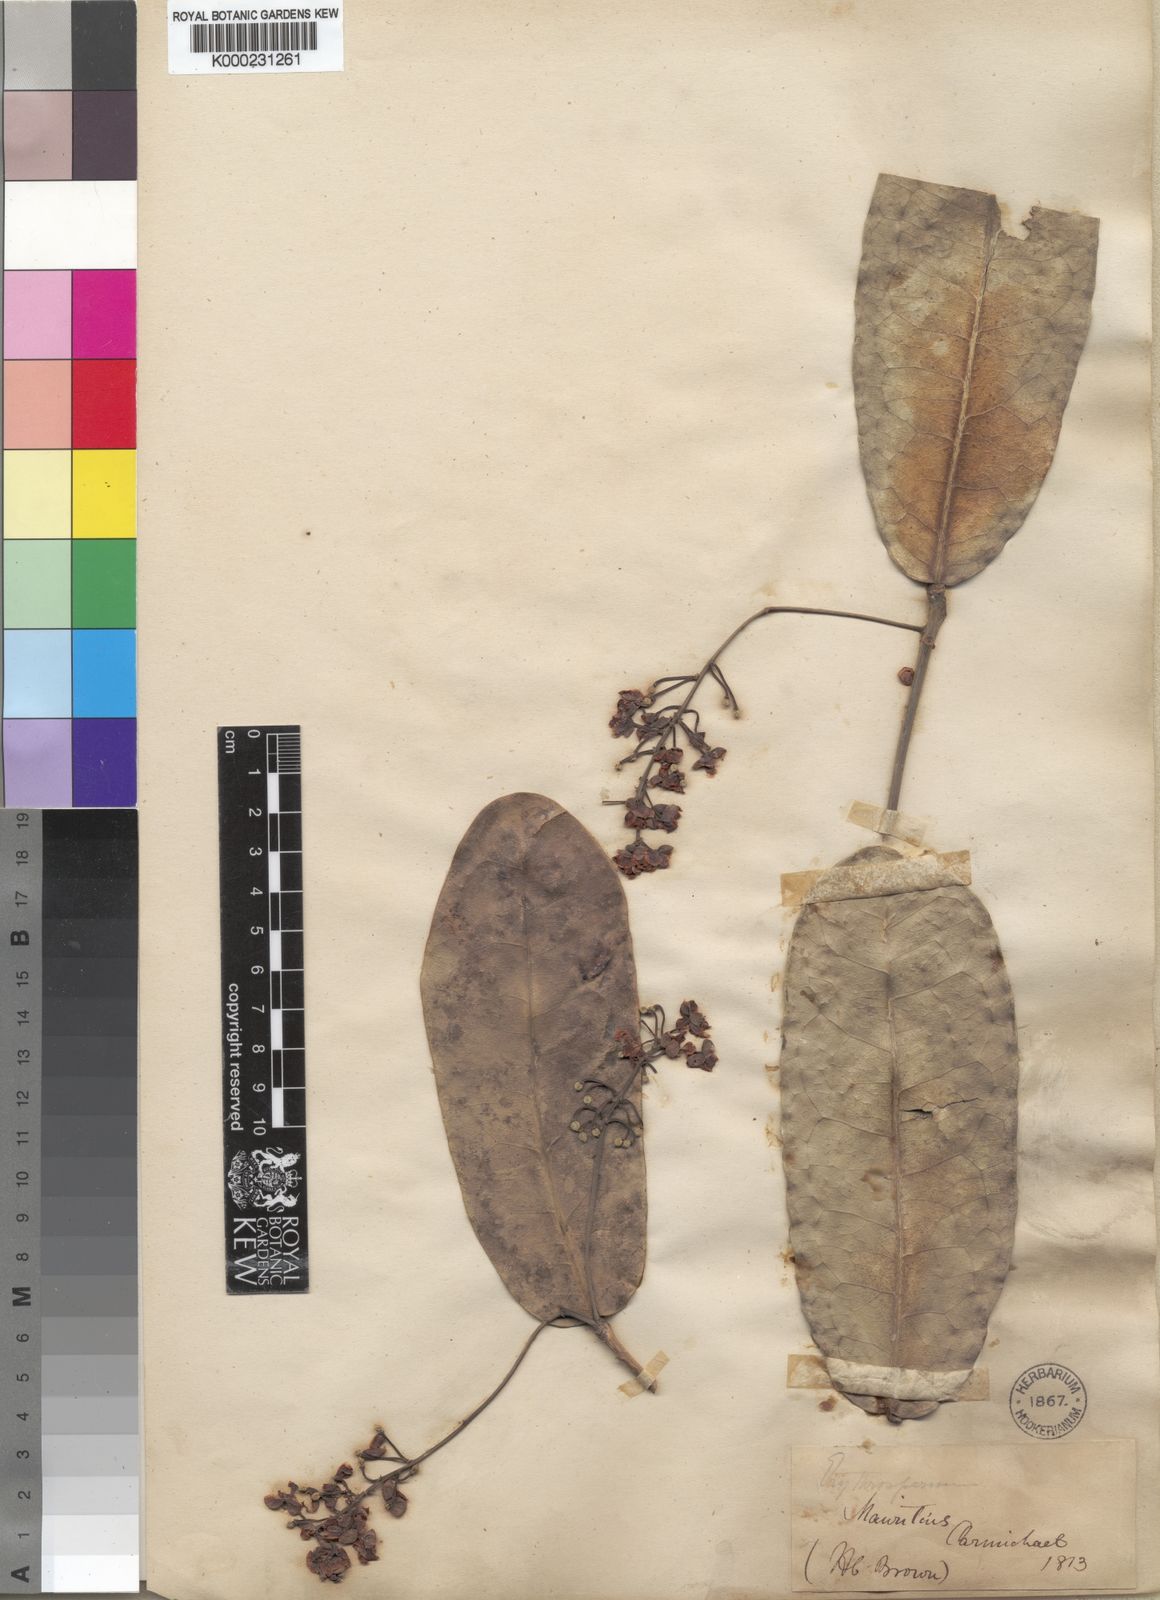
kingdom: Plantae
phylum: Tracheophyta
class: Magnoliopsida
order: Malpighiales
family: Achariaceae
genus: Erythrospermum
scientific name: Erythrospermum
